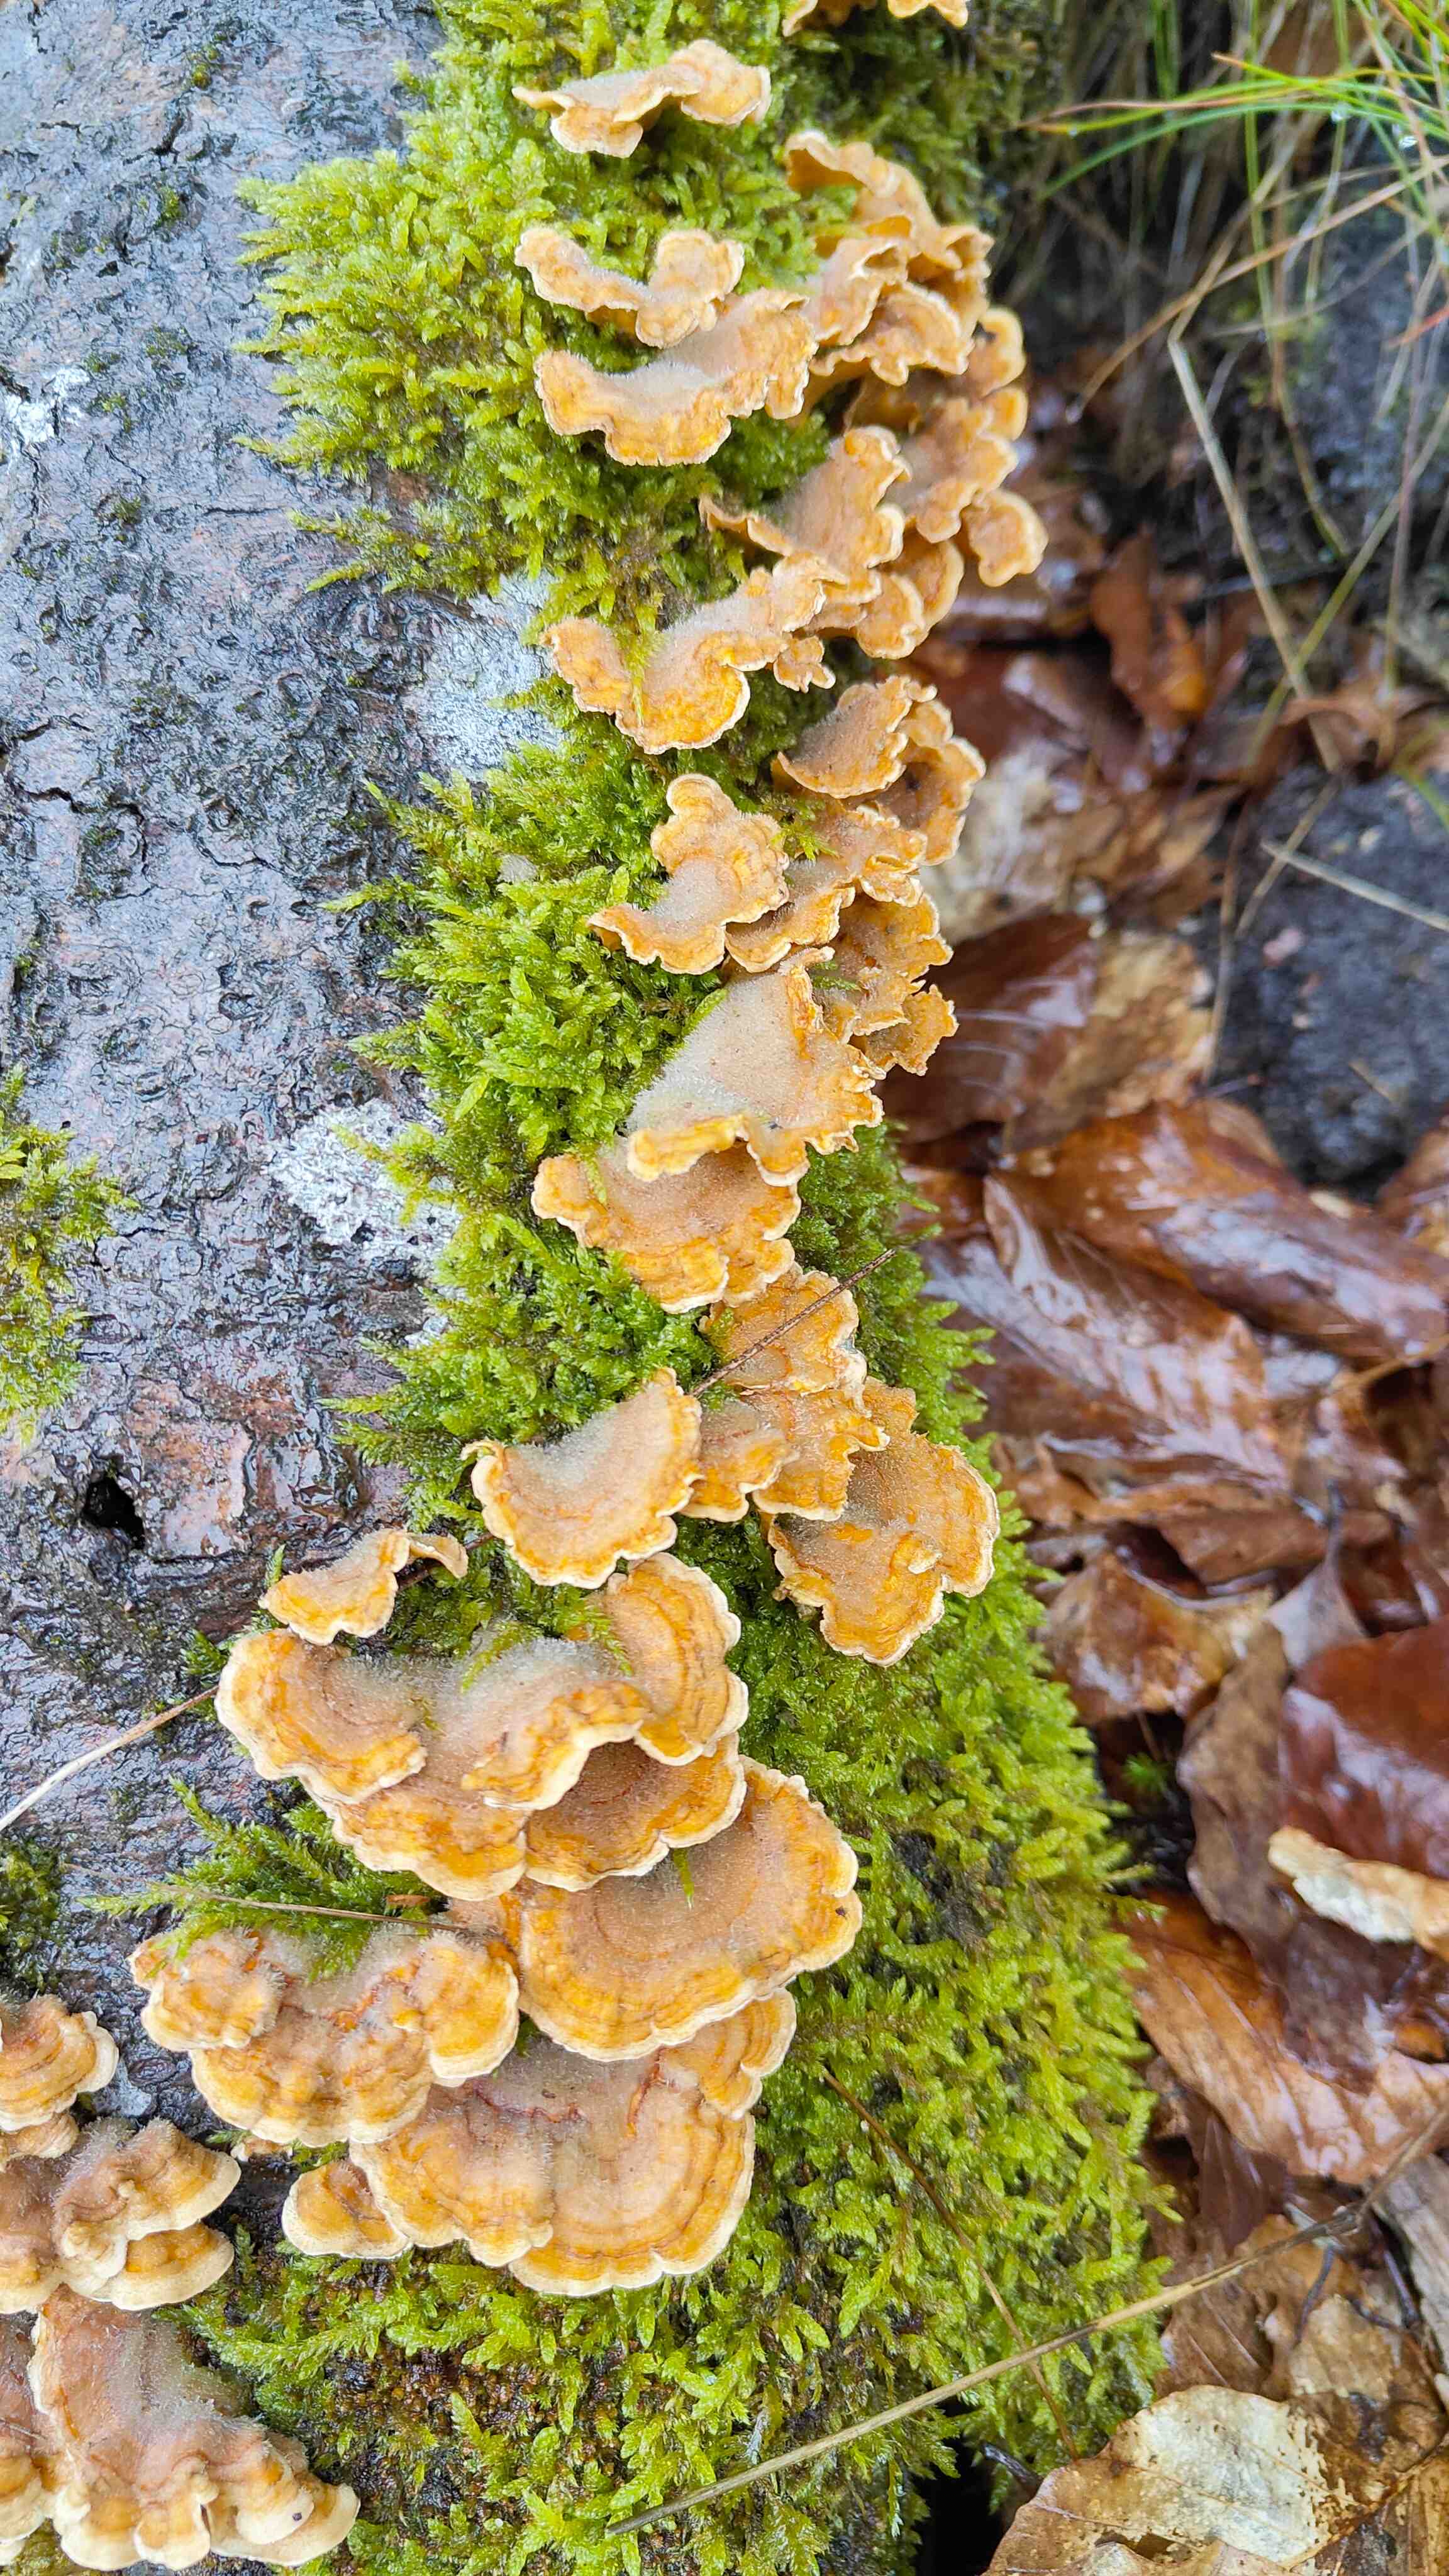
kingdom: Fungi
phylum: Basidiomycota
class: Agaricomycetes
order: Russulales
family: Stereaceae
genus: Stereum
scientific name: Stereum hirsutum
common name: håret lædersvamp
